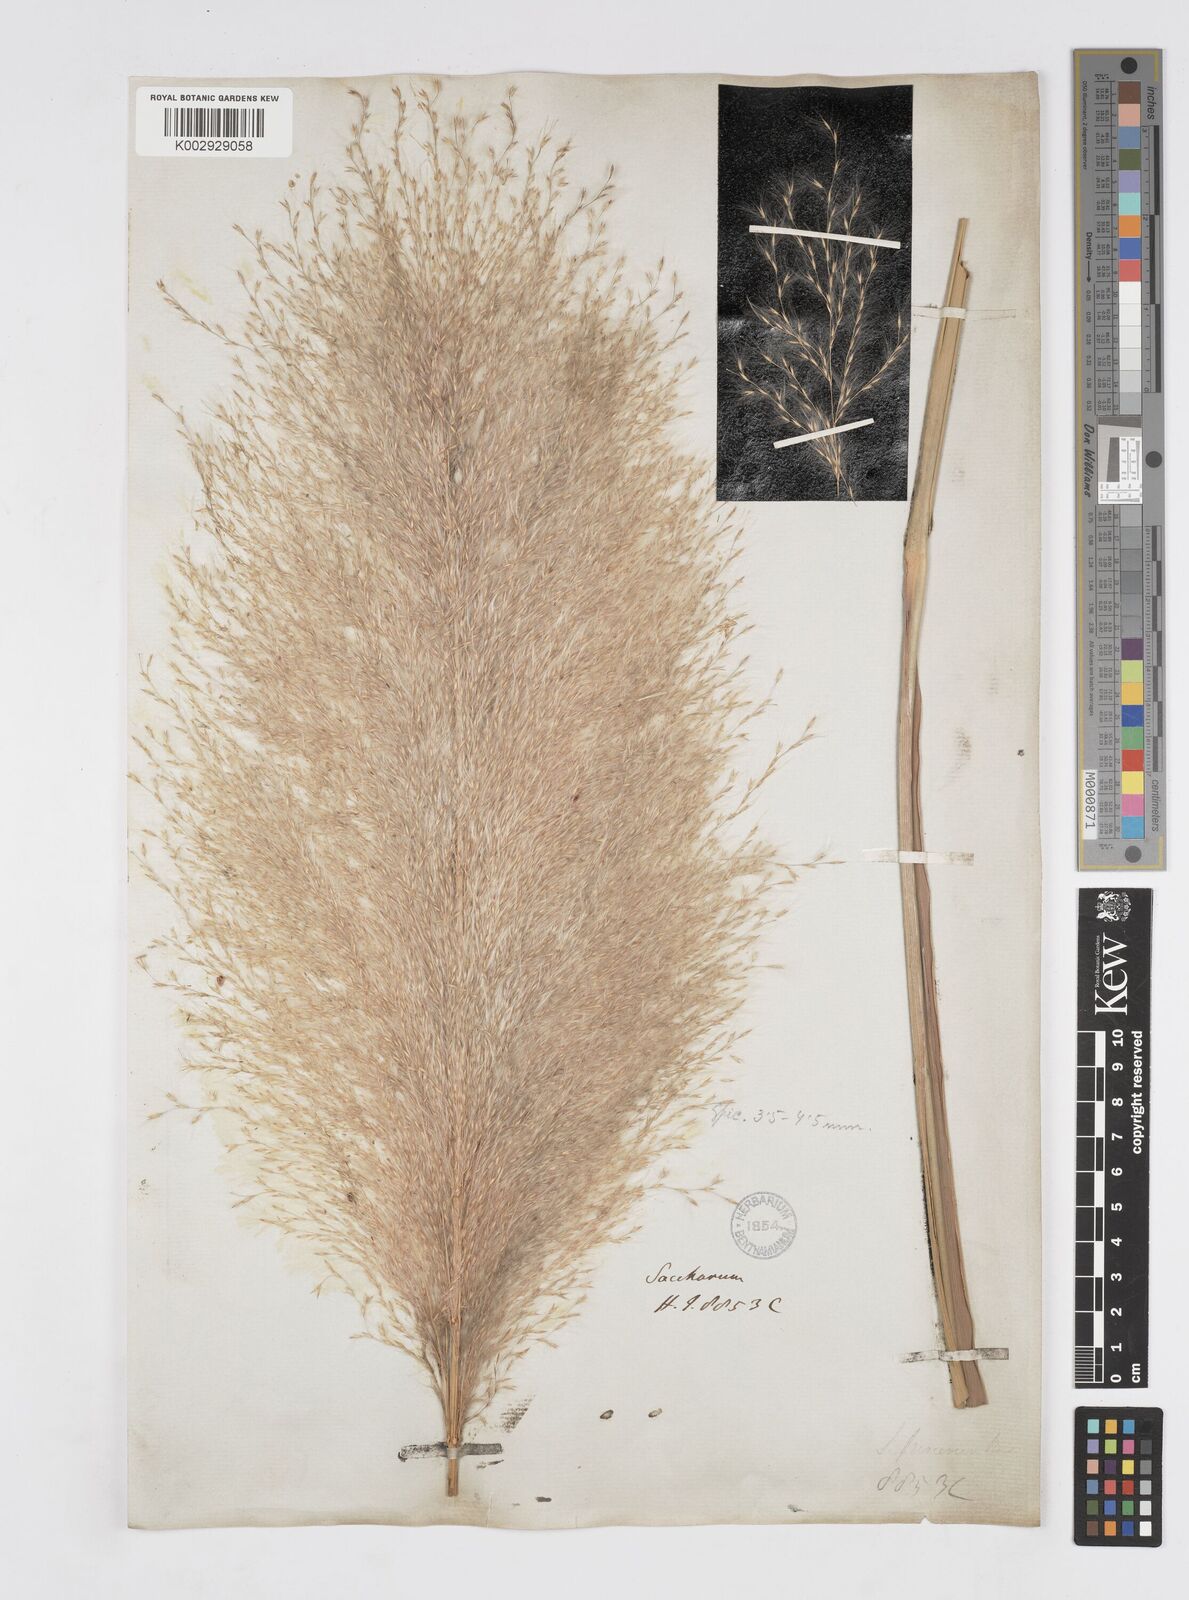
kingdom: Plantae
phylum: Tracheophyta
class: Liliopsida
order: Poales
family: Poaceae
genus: Tripidium
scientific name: Tripidium procerum
